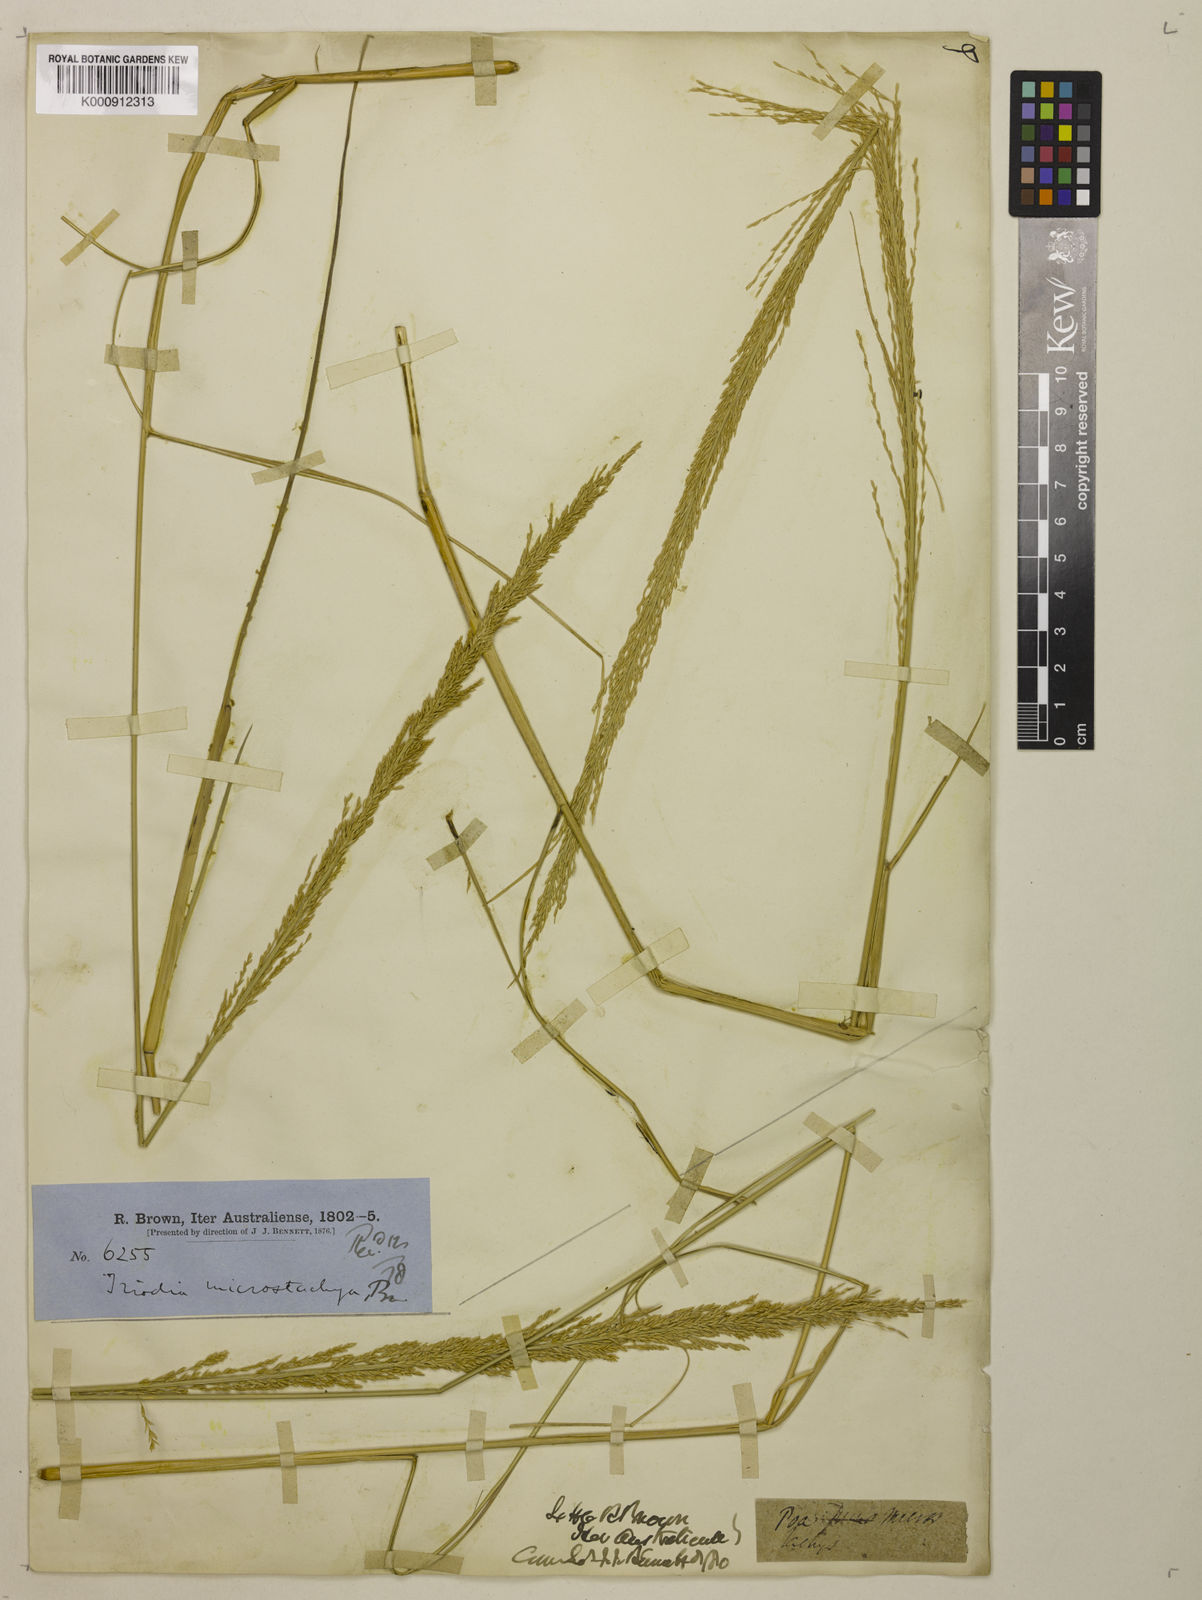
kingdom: Plantae
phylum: Tracheophyta
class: Liliopsida
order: Poales
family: Poaceae
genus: Triodia
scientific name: Triodia microstachya
